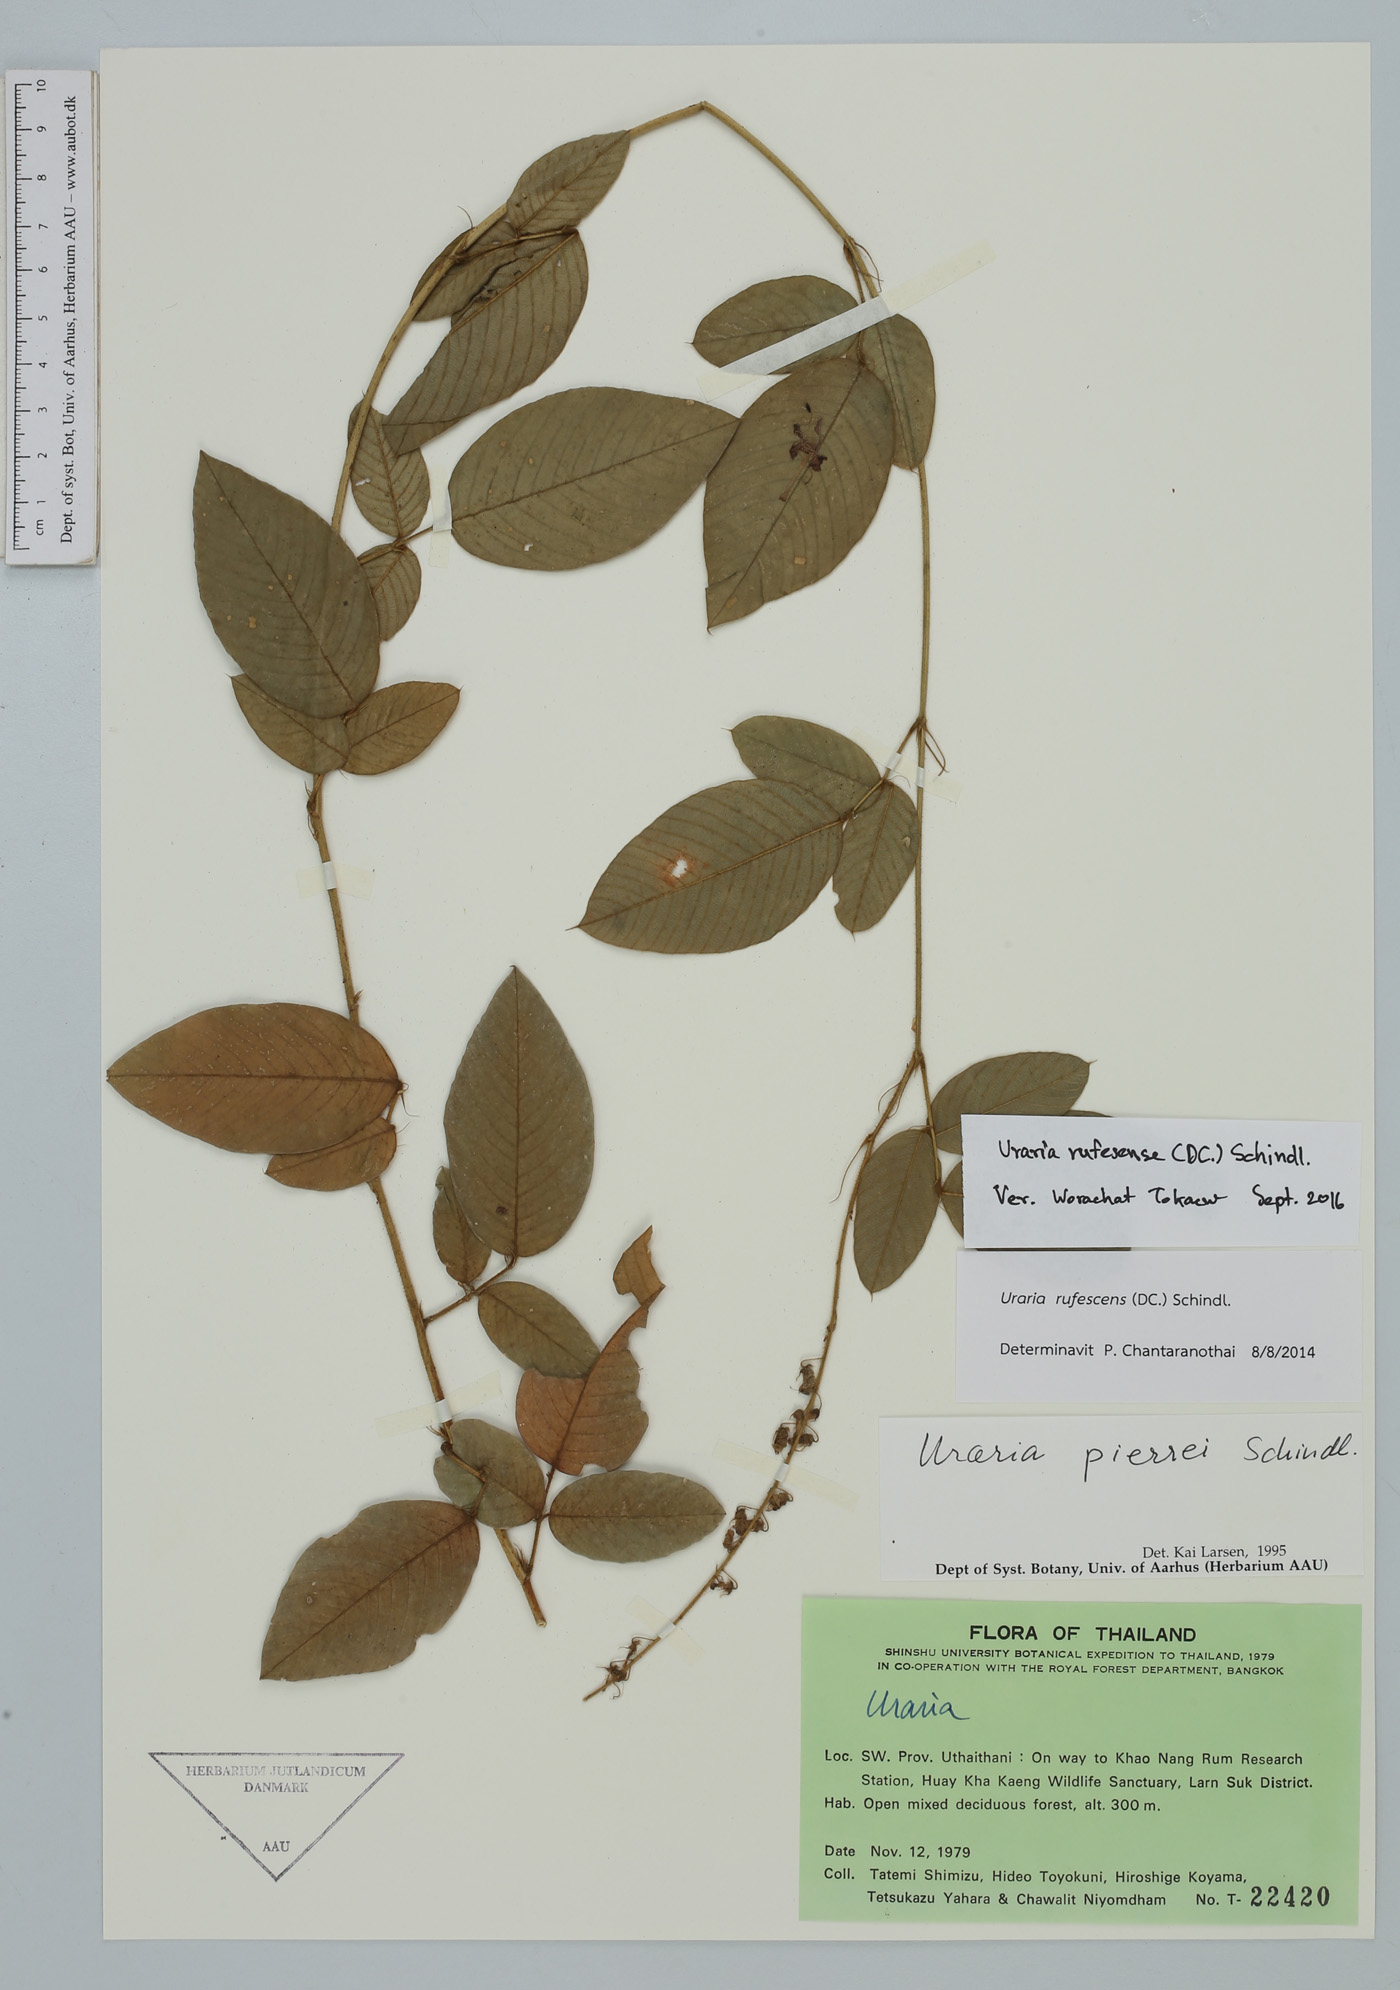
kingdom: Plantae
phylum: Tracheophyta
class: Magnoliopsida
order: Fabales
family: Fabaceae
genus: Uraria
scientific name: Uraria rufescens
